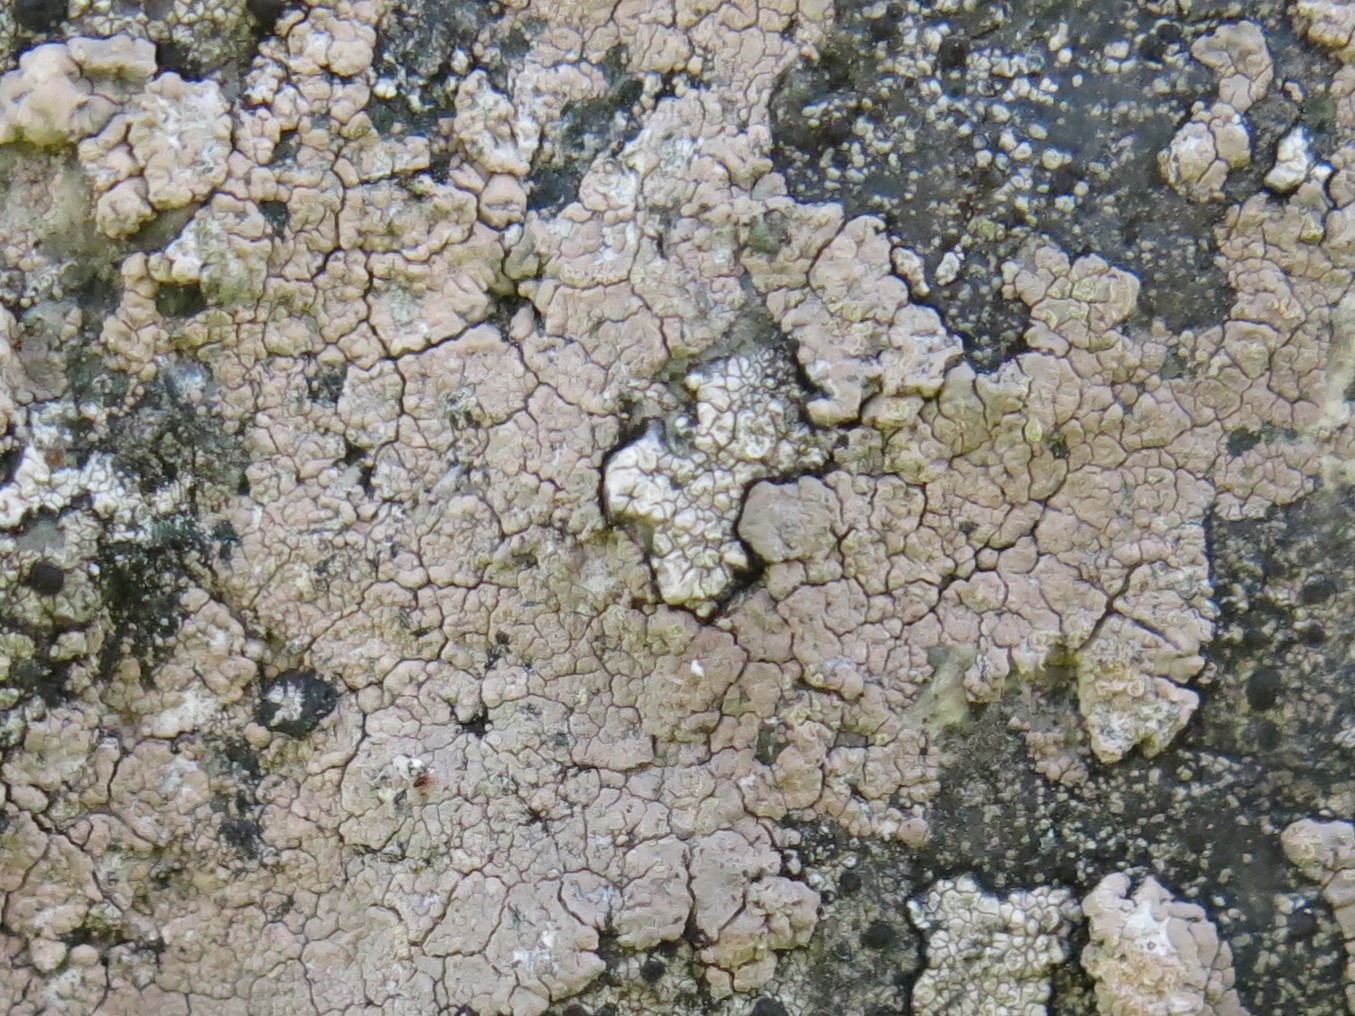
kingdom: Fungi
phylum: Ascomycota
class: Lecanoromycetes
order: Baeomycetales
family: Trapeliaceae
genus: Kleopowiella
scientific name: Kleopowiella placodioides
